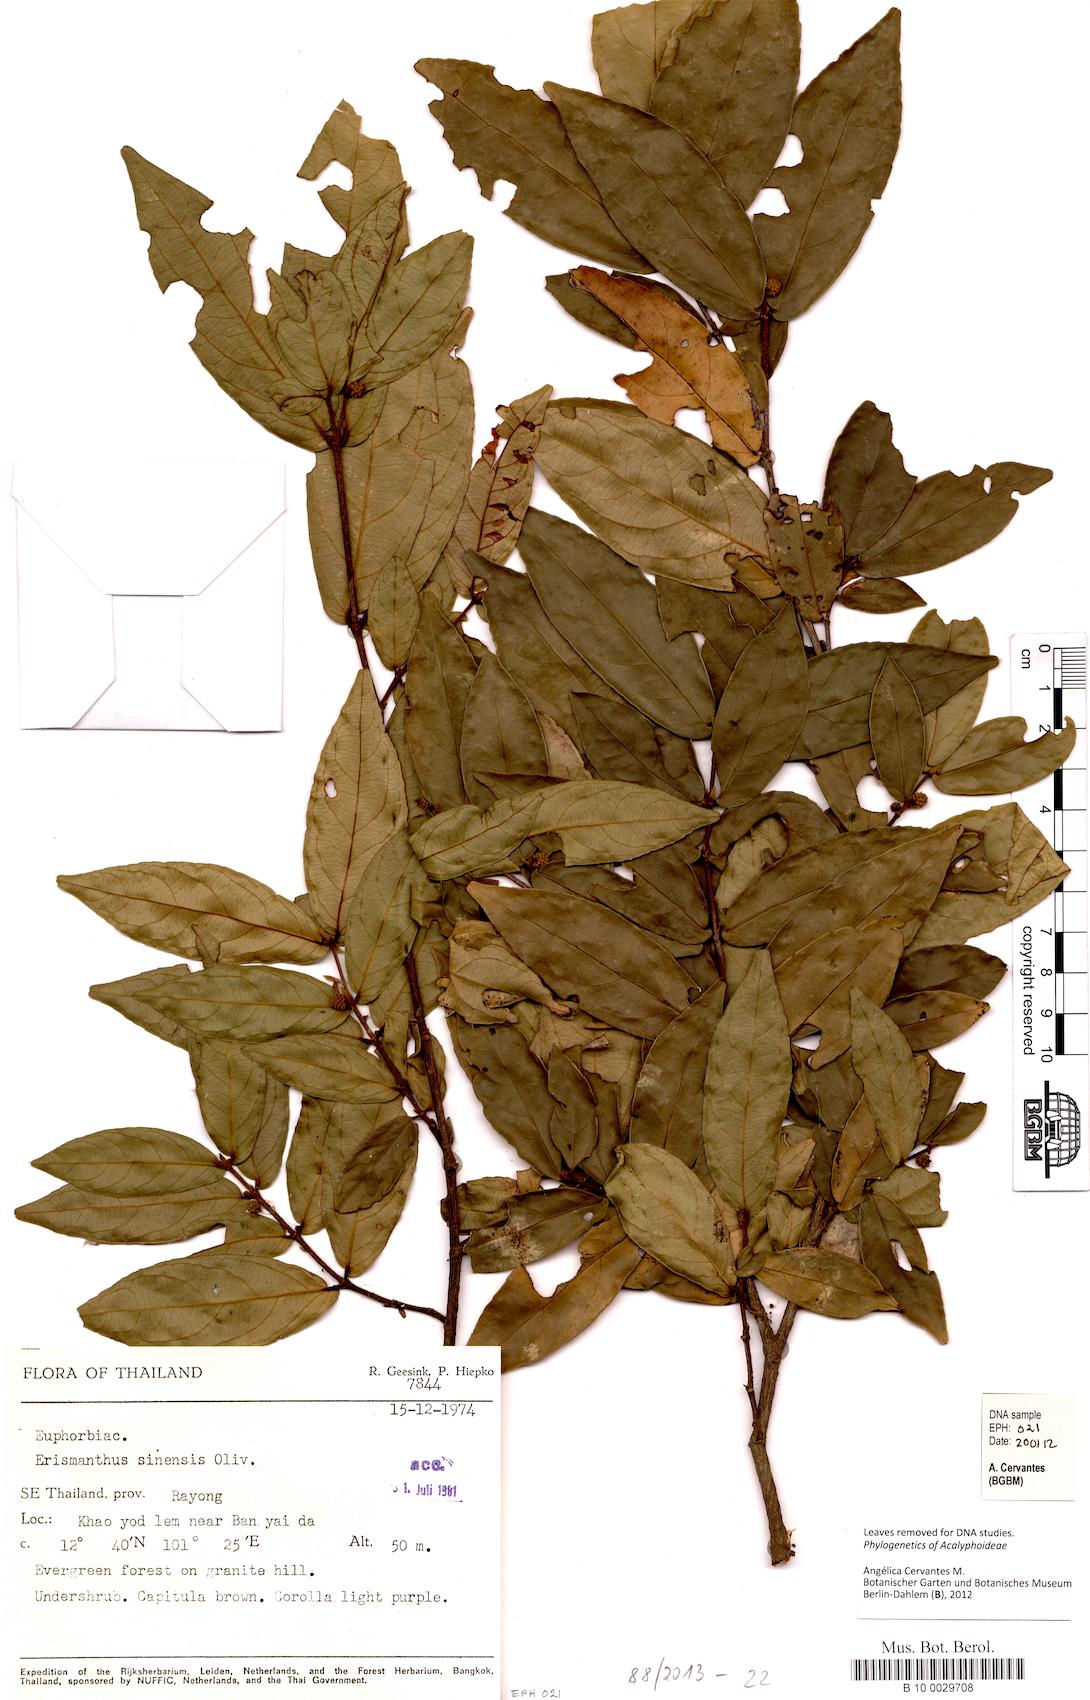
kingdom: Plantae
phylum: Tracheophyta
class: Magnoliopsida
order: Malpighiales
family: Euphorbiaceae
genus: Erismanthus
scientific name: Erismanthus sinensis
